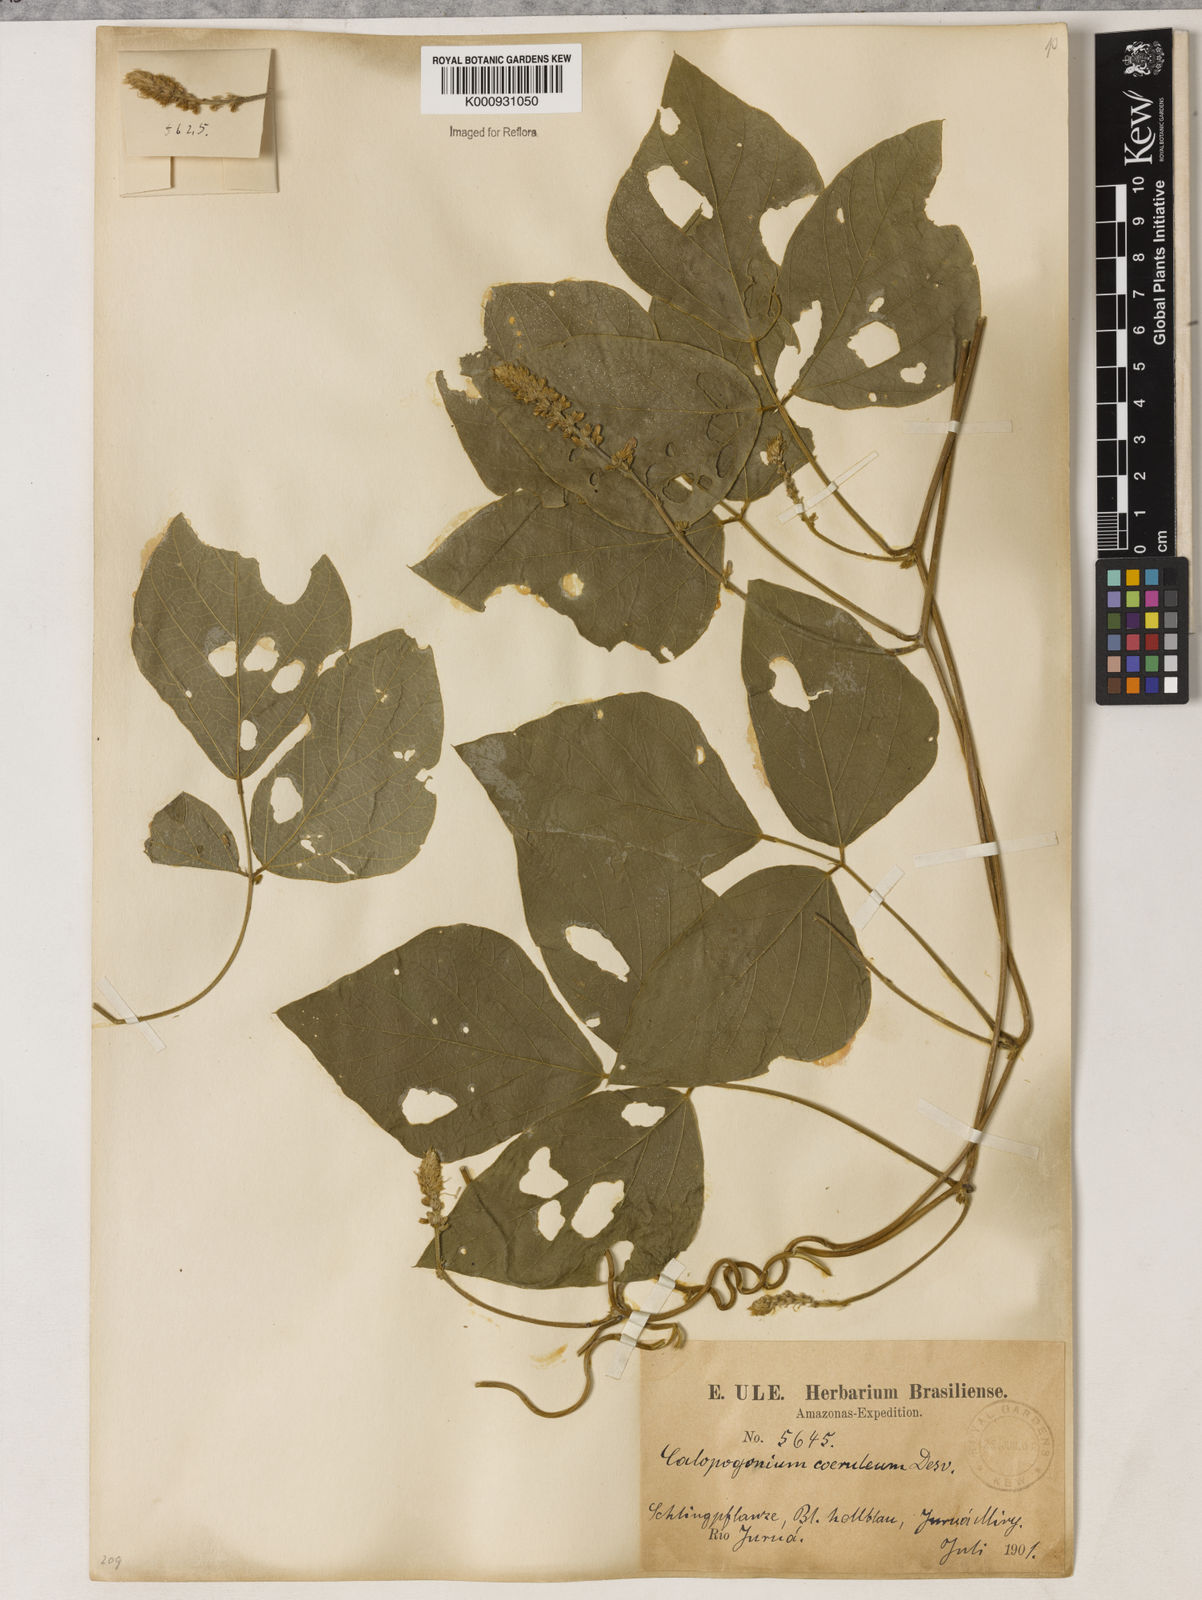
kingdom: Plantae
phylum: Tracheophyta
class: Magnoliopsida
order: Fabales
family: Fabaceae
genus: Calopogonium
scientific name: Calopogonium caeruleum
